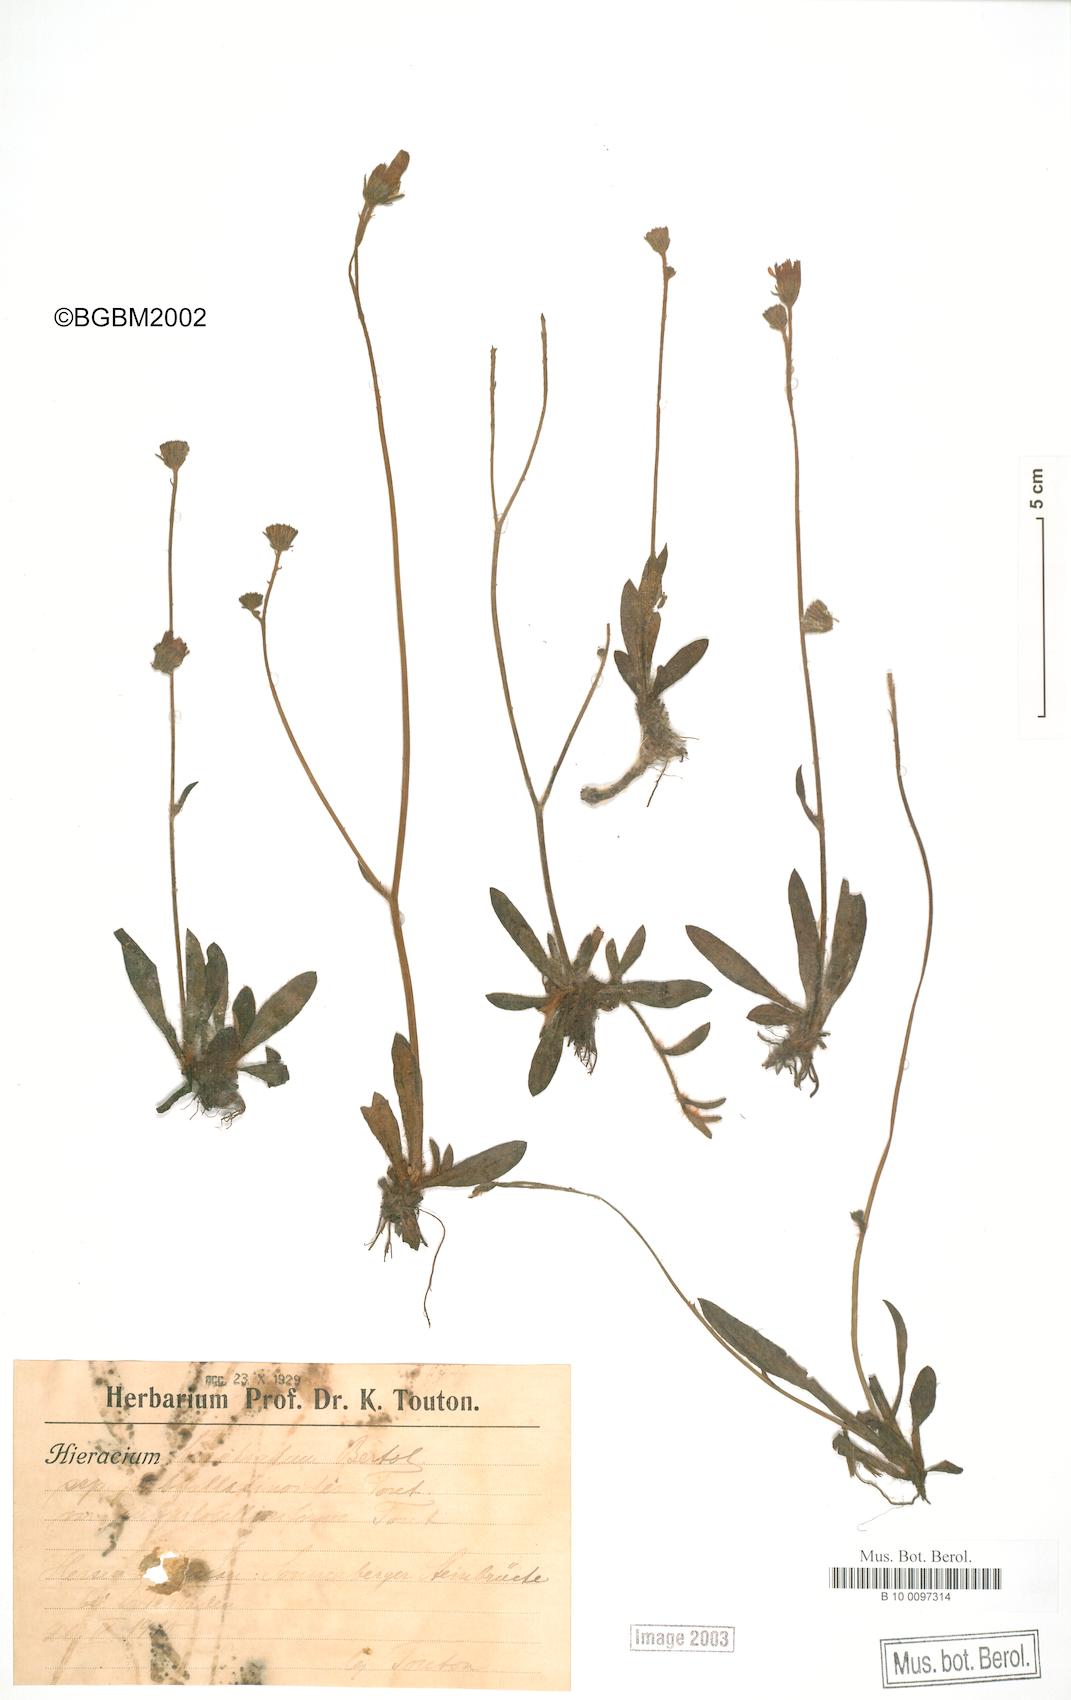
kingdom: Plantae
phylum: Tracheophyta
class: Magnoliopsida
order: Asterales
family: Asteraceae
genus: Pilosella
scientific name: Pilosella acutifolia
